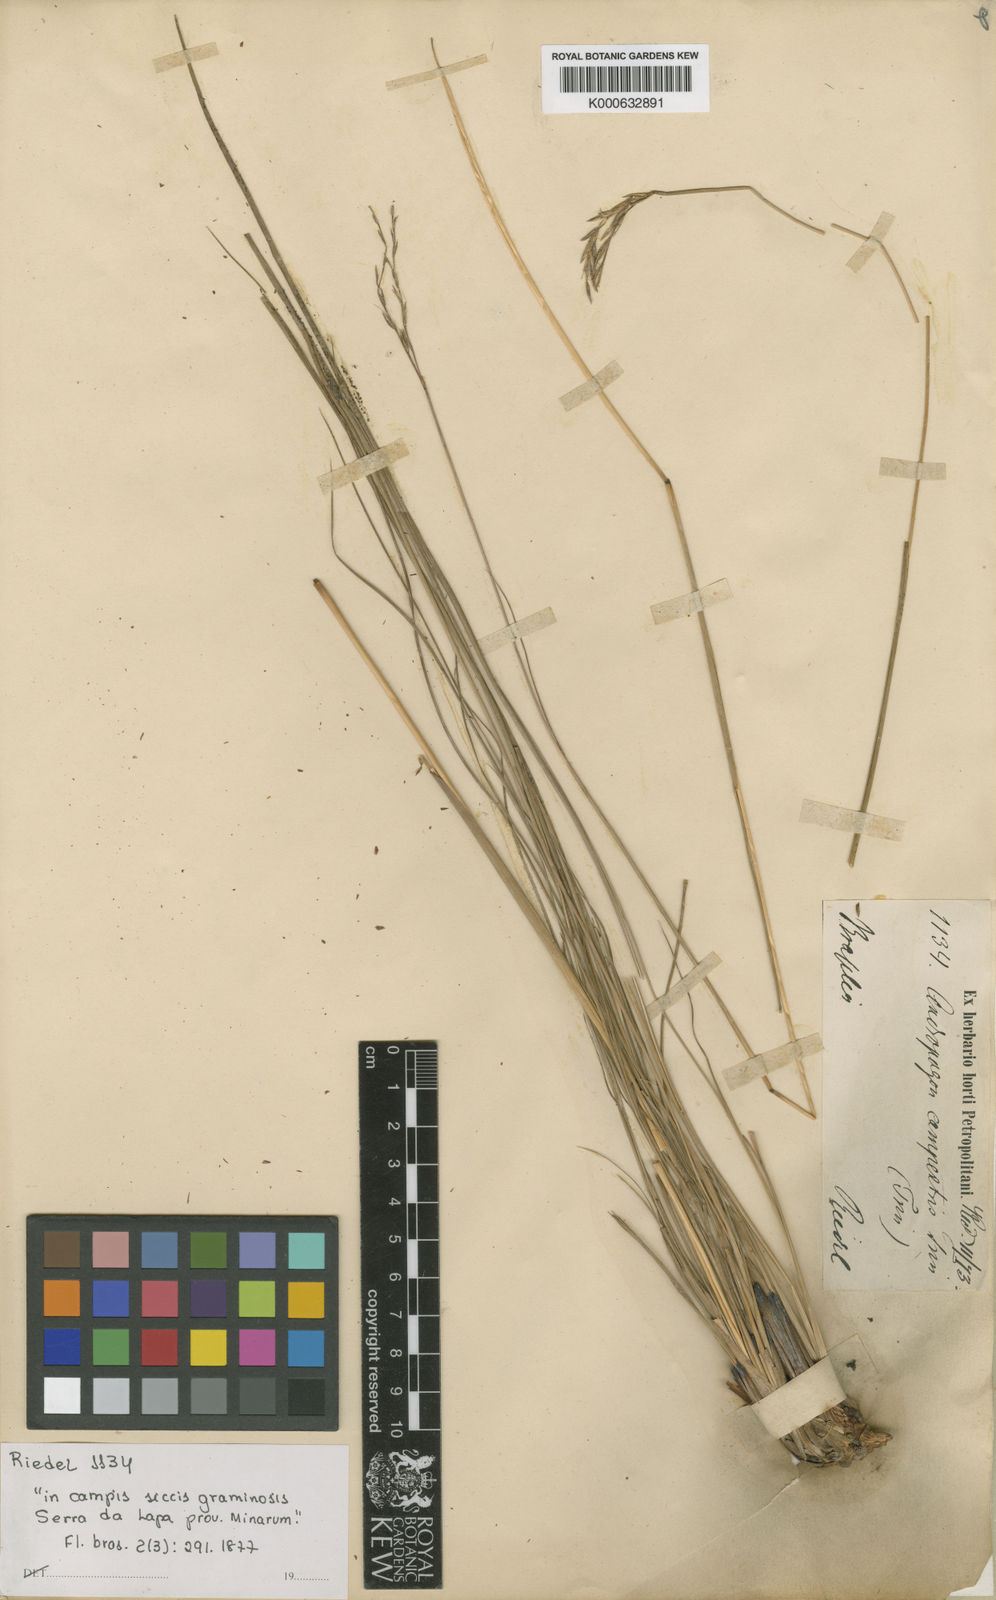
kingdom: Plantae
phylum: Tracheophyta
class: Liliopsida
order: Poales
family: Poaceae
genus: Andropogon
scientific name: Andropogon campestris
